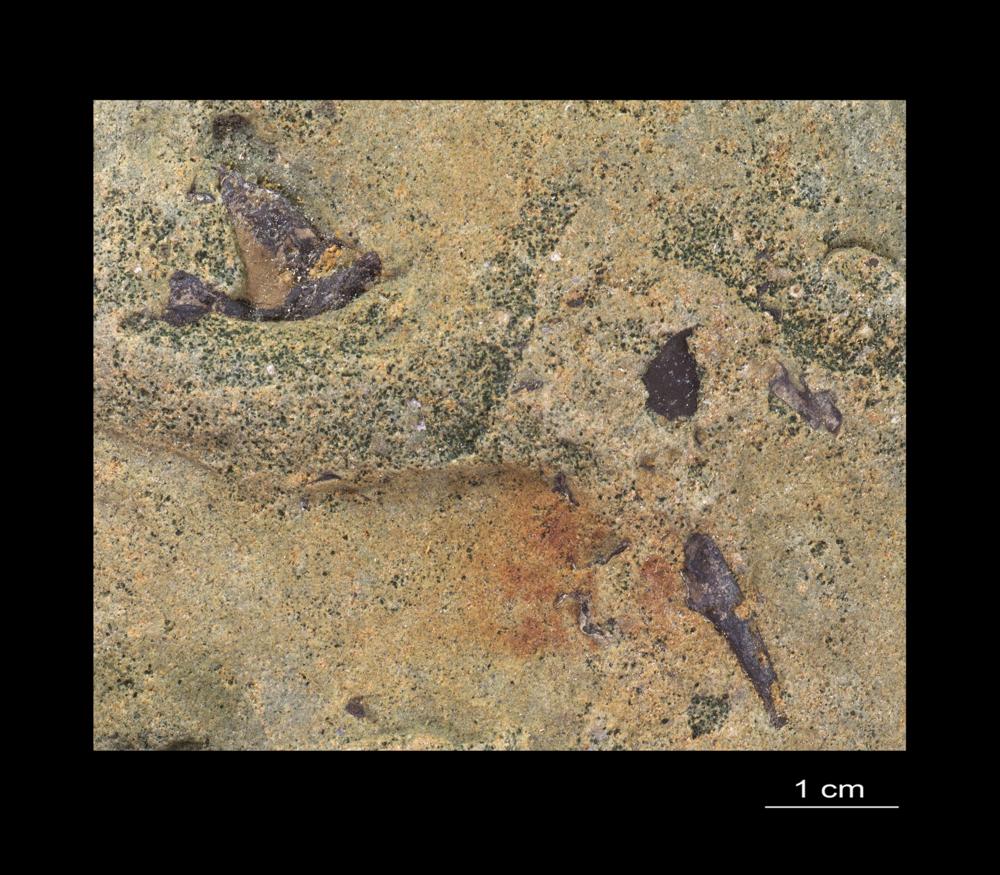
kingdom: Animalia
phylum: Arthropoda
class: Trilobita
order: Redlichiida
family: Holmiidae
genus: Schmidtiellus
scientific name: Schmidtiellus Olenellus mickwitzi
